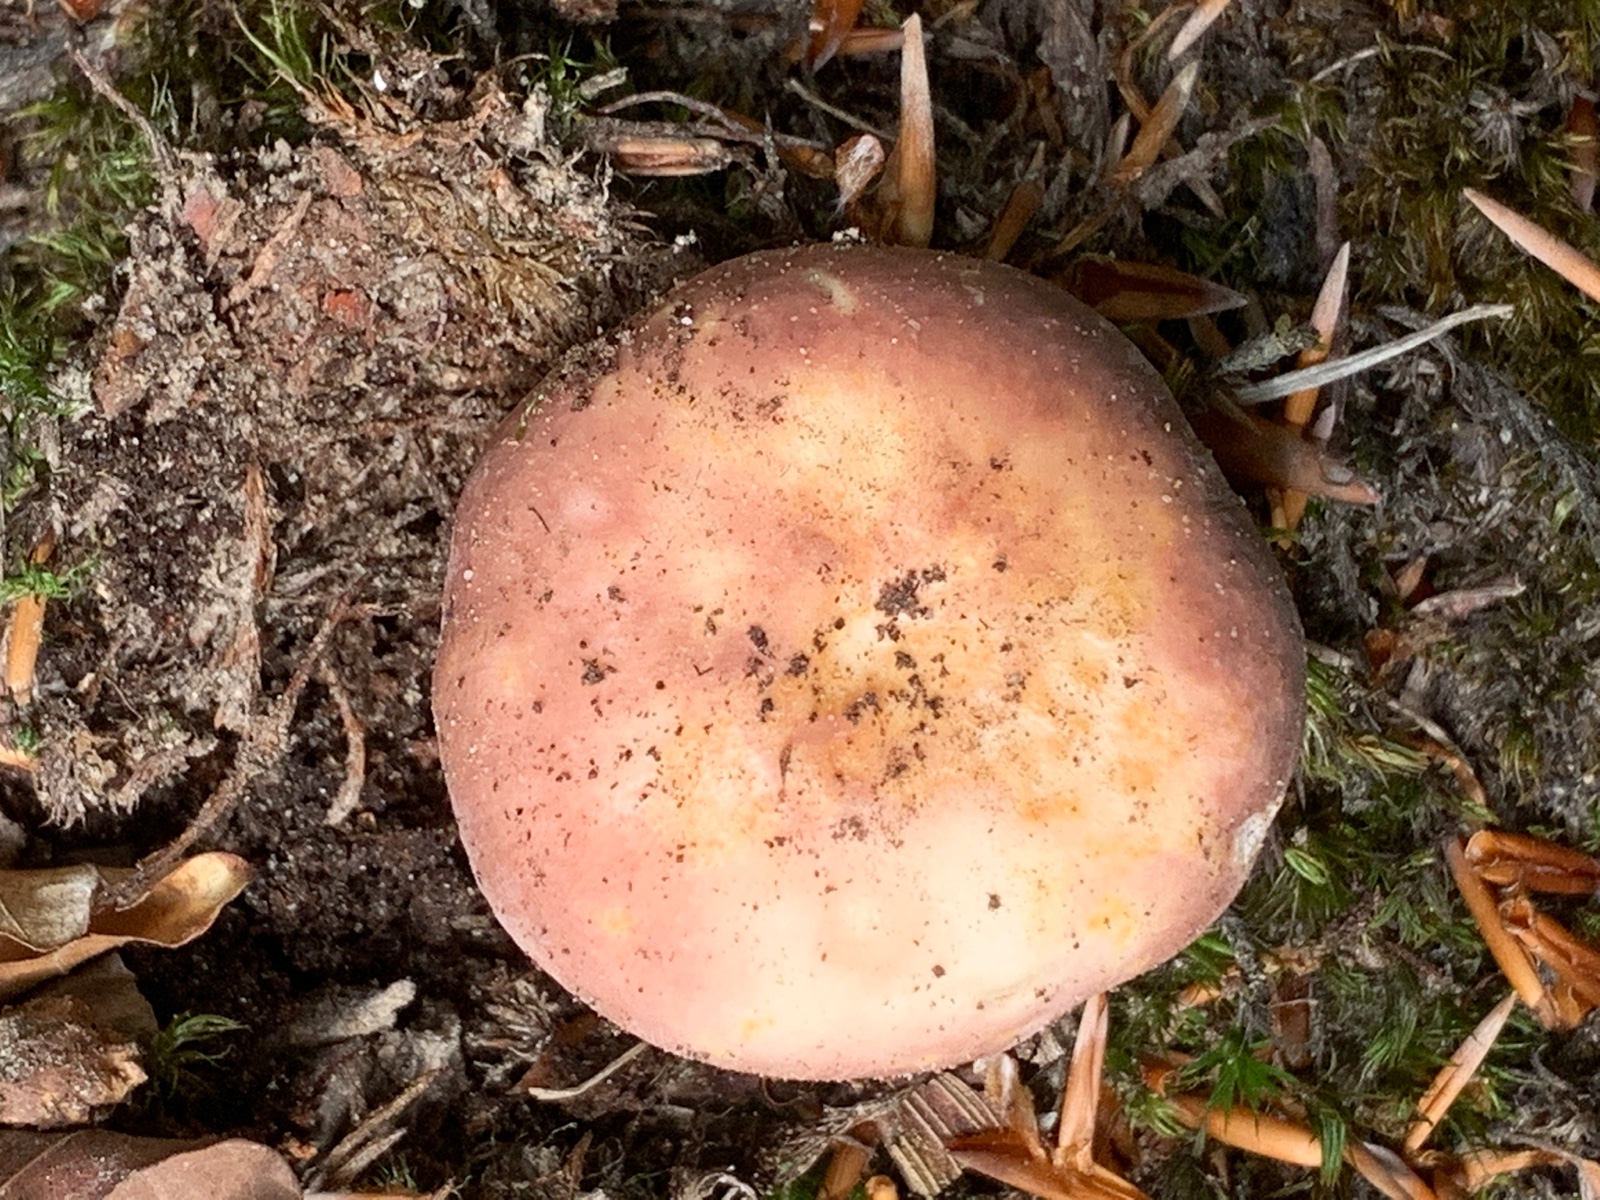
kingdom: Fungi
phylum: Basidiomycota
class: Agaricomycetes
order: Russulales
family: Russulaceae
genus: Russula
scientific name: Russula vesca
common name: spiselig skørhat
